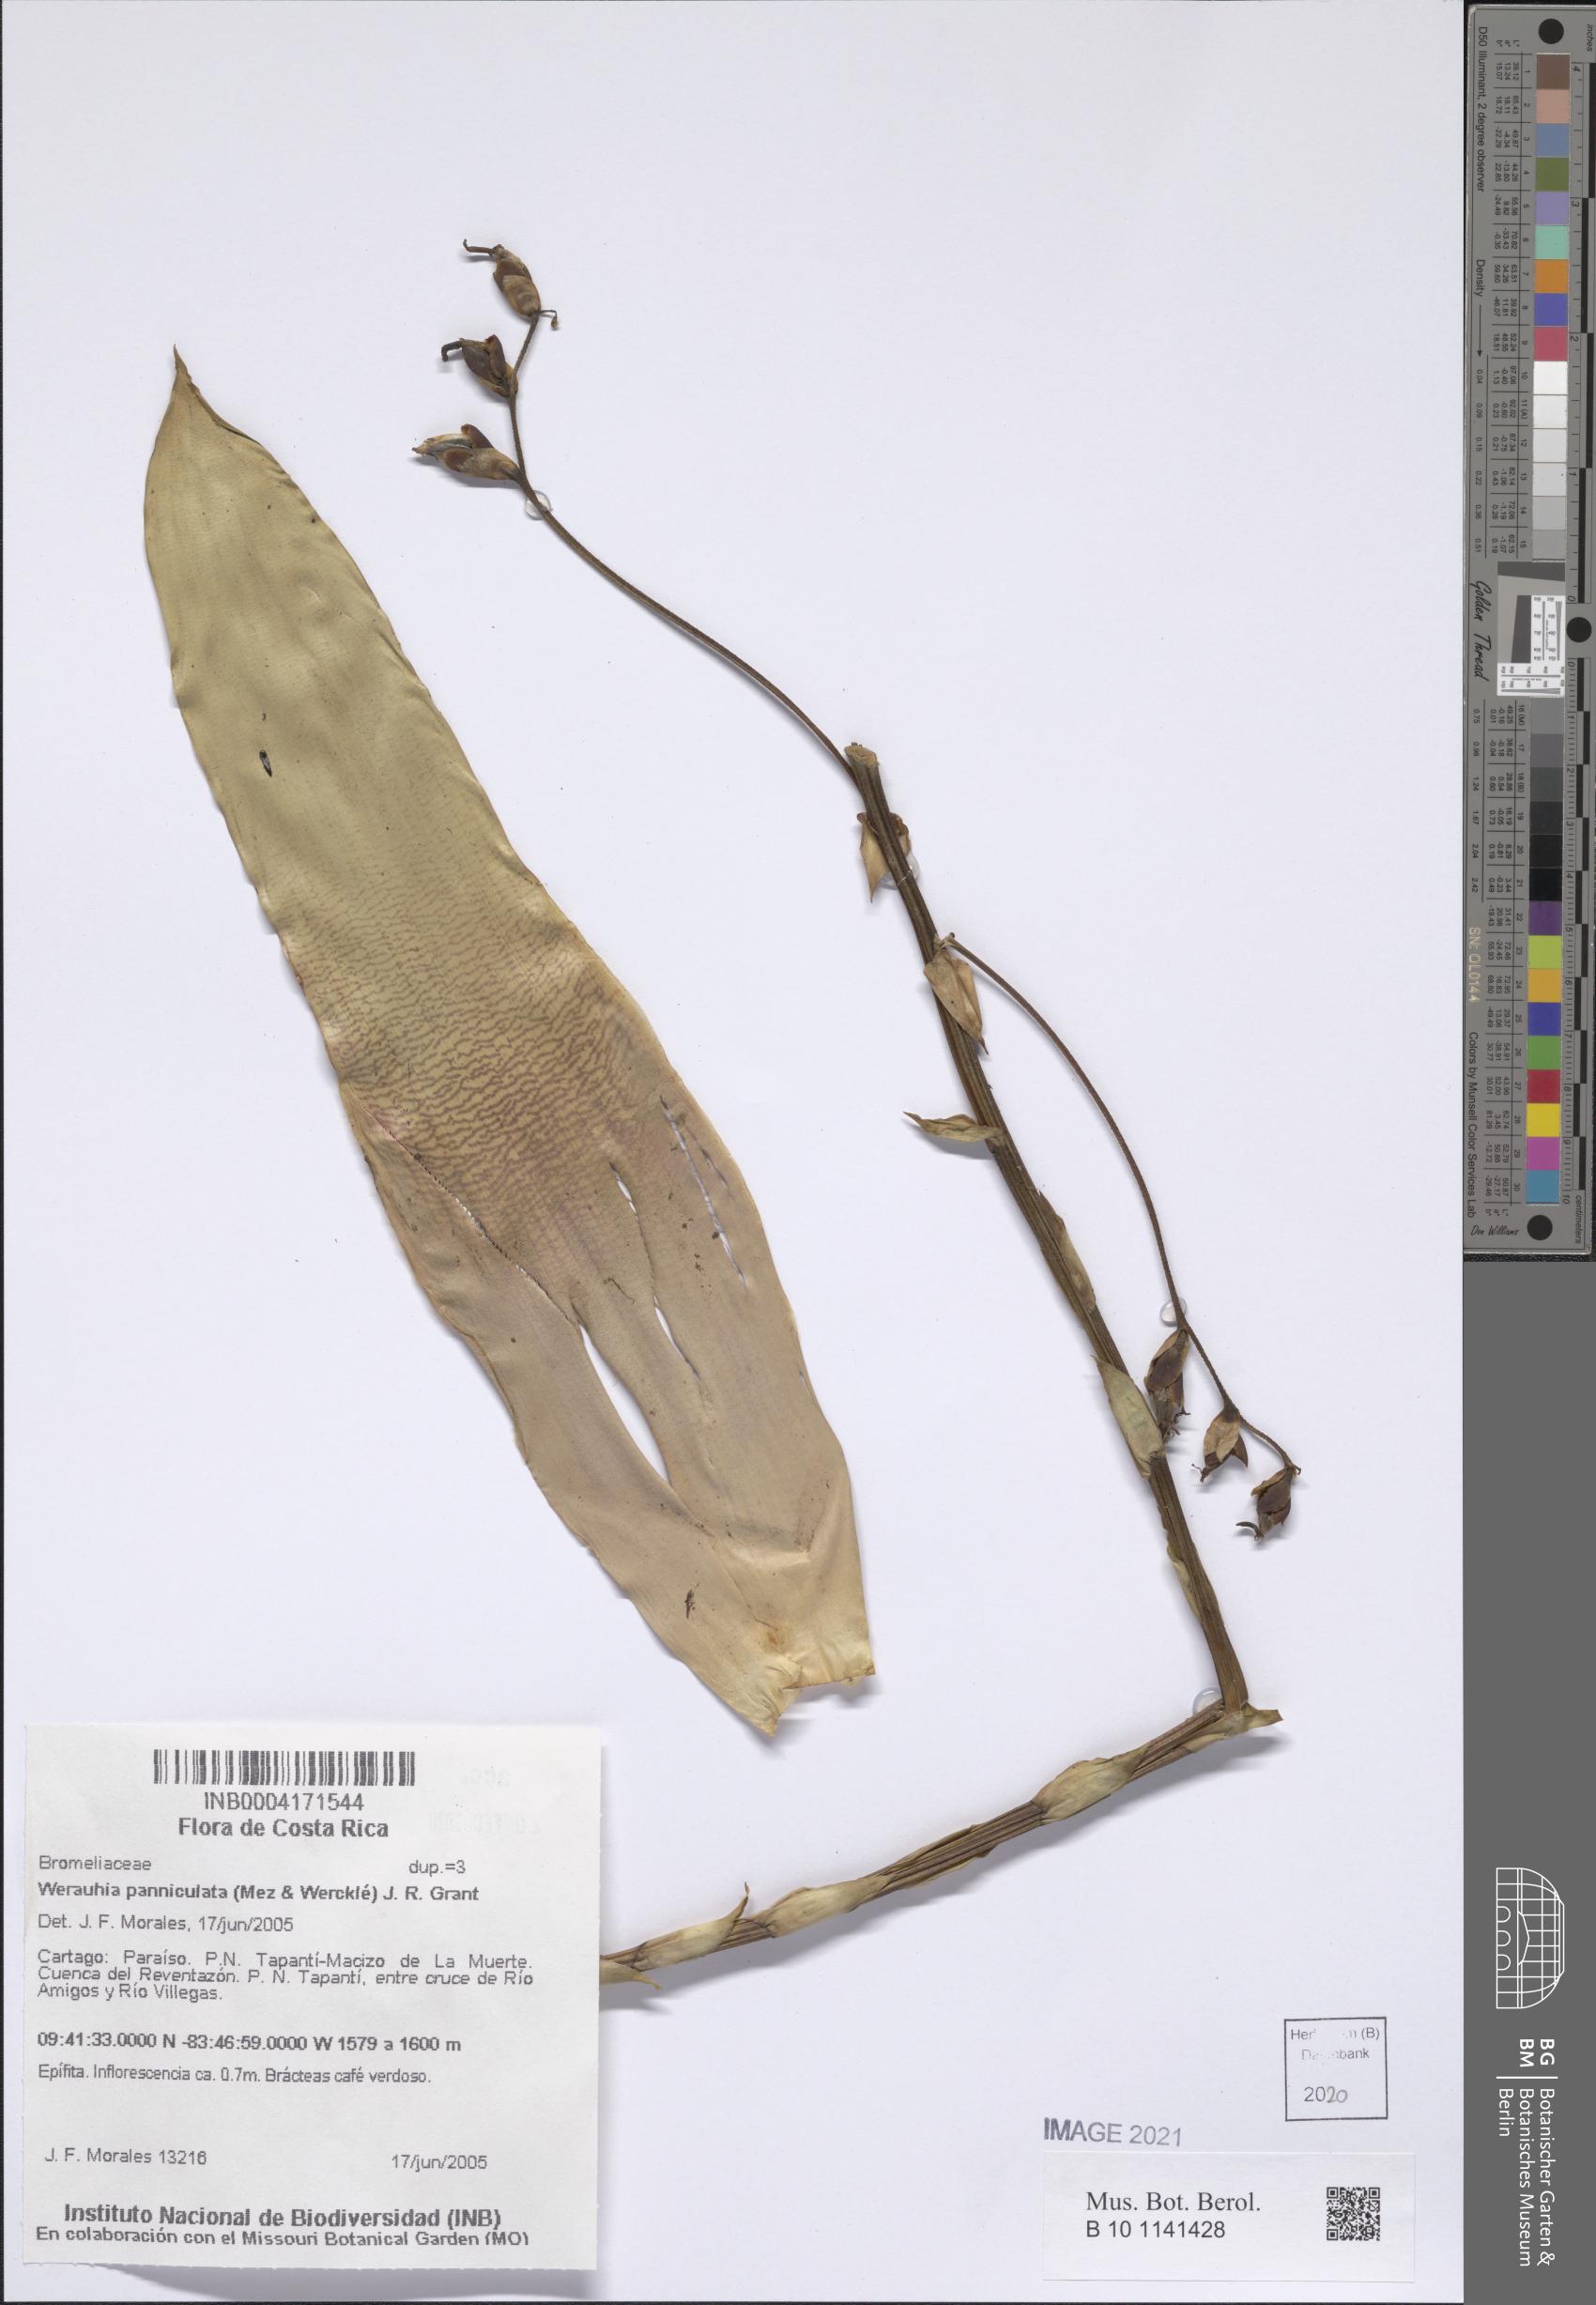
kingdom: Plantae
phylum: Tracheophyta
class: Liliopsida
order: Poales
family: Bromeliaceae
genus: Werauhia
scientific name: Werauhia paniculata
